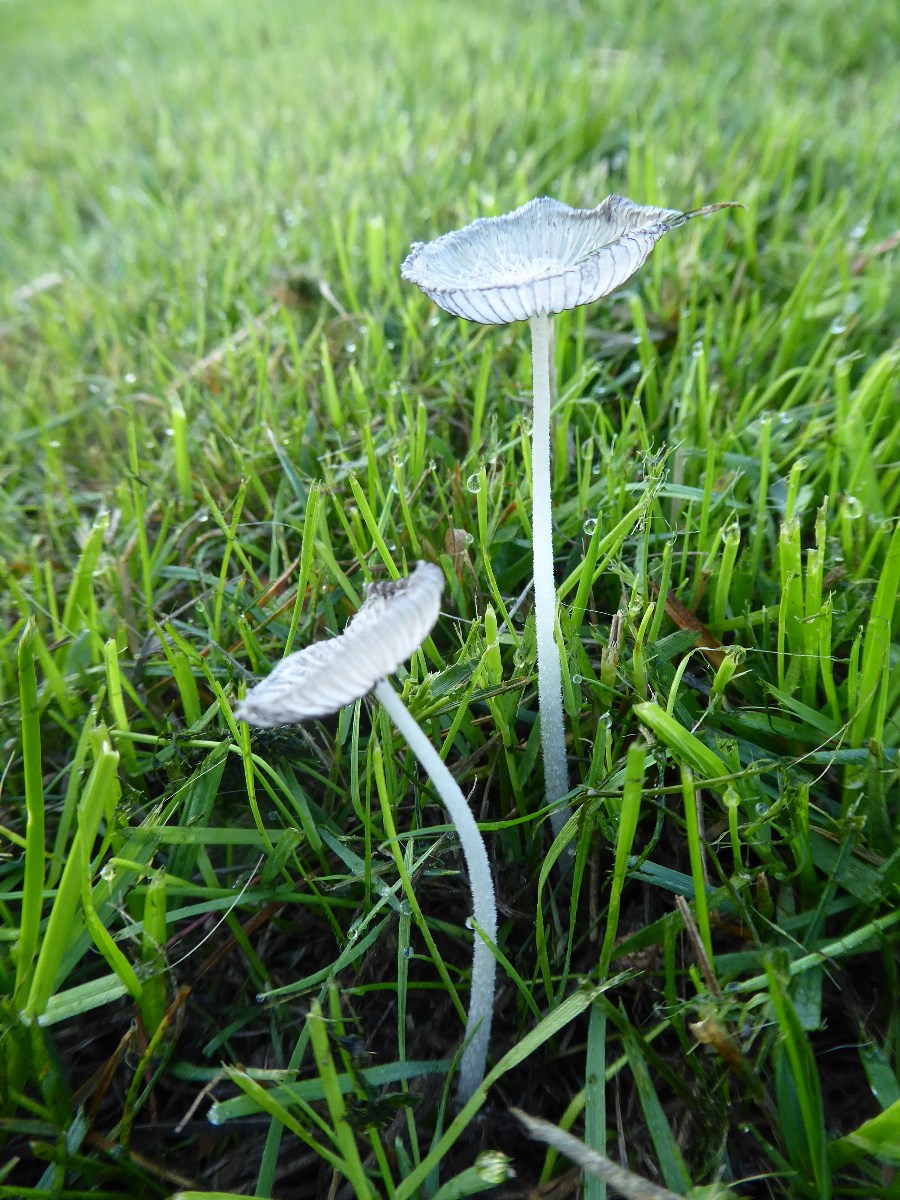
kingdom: Fungi
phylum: Basidiomycota
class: Agaricomycetes
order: Agaricales
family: Psathyrellaceae
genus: Coprinopsis
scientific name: Coprinopsis lagopus
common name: dunstokket blækhat
